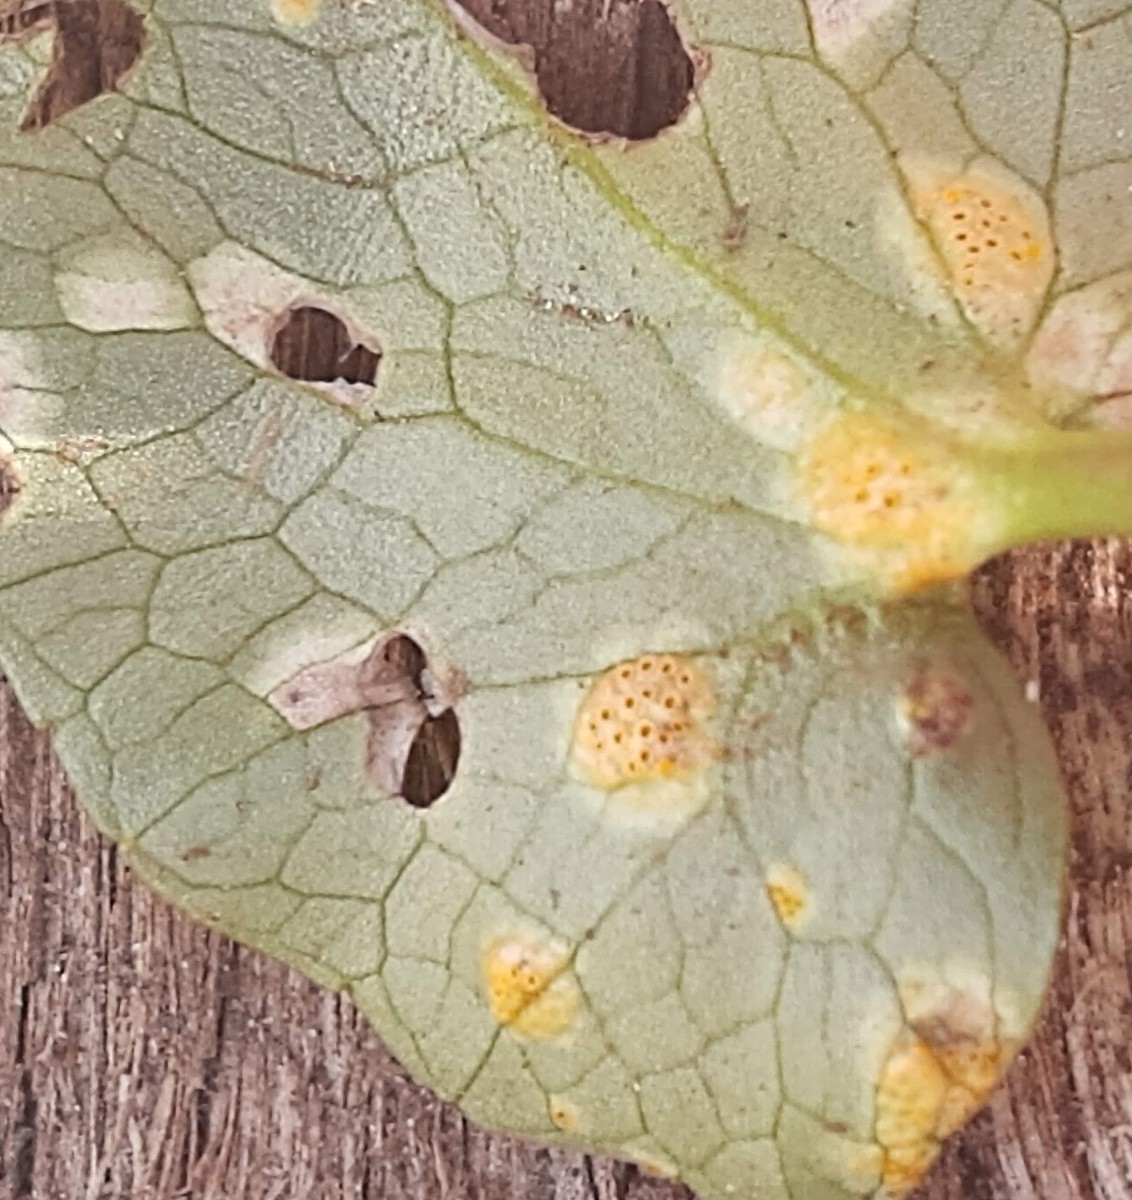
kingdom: Fungi
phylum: Basidiomycota
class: Pucciniomycetes
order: Pucciniales
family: Pucciniaceae
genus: Uromyces
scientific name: Uromyces dactylidis
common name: ranunkel-encellerust
